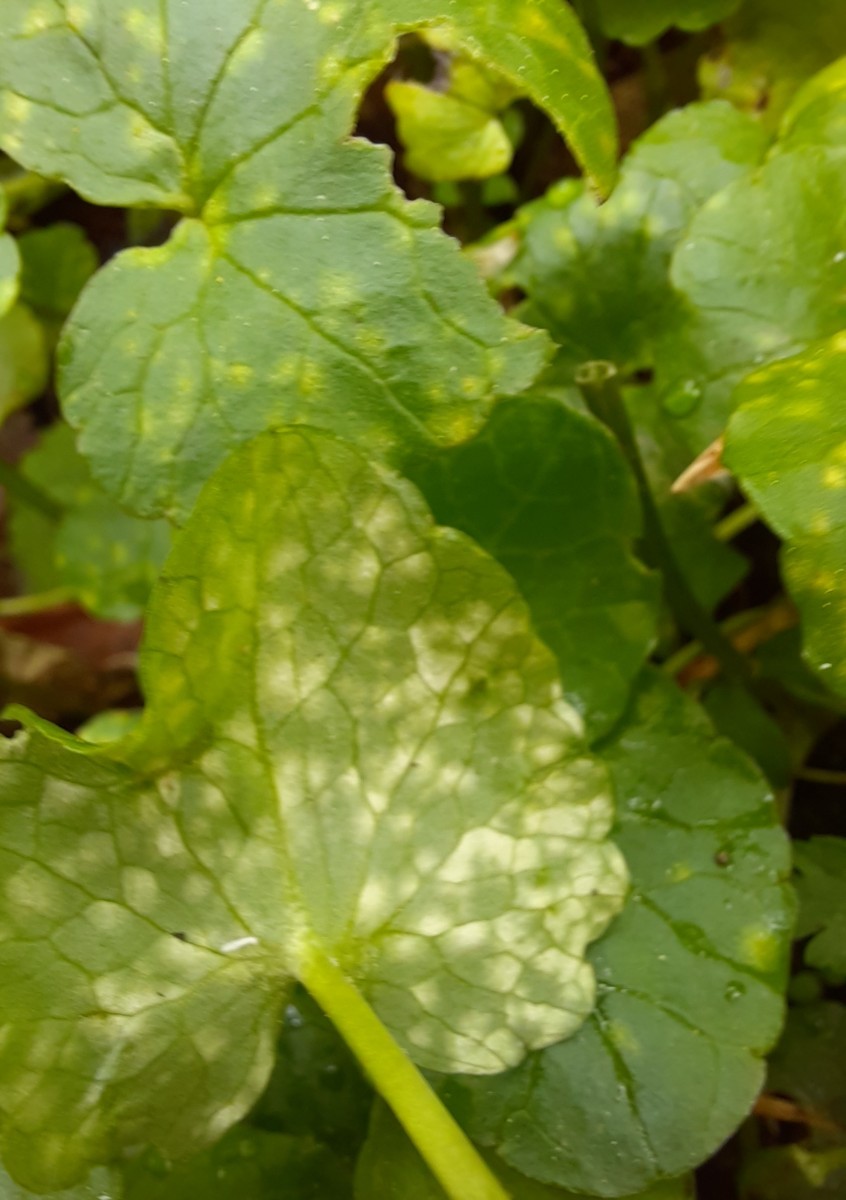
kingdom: Fungi
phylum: Basidiomycota
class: Exobasidiomycetes
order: Entylomatales
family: Entylomataceae
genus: Entyloma
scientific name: Entyloma ficariae
